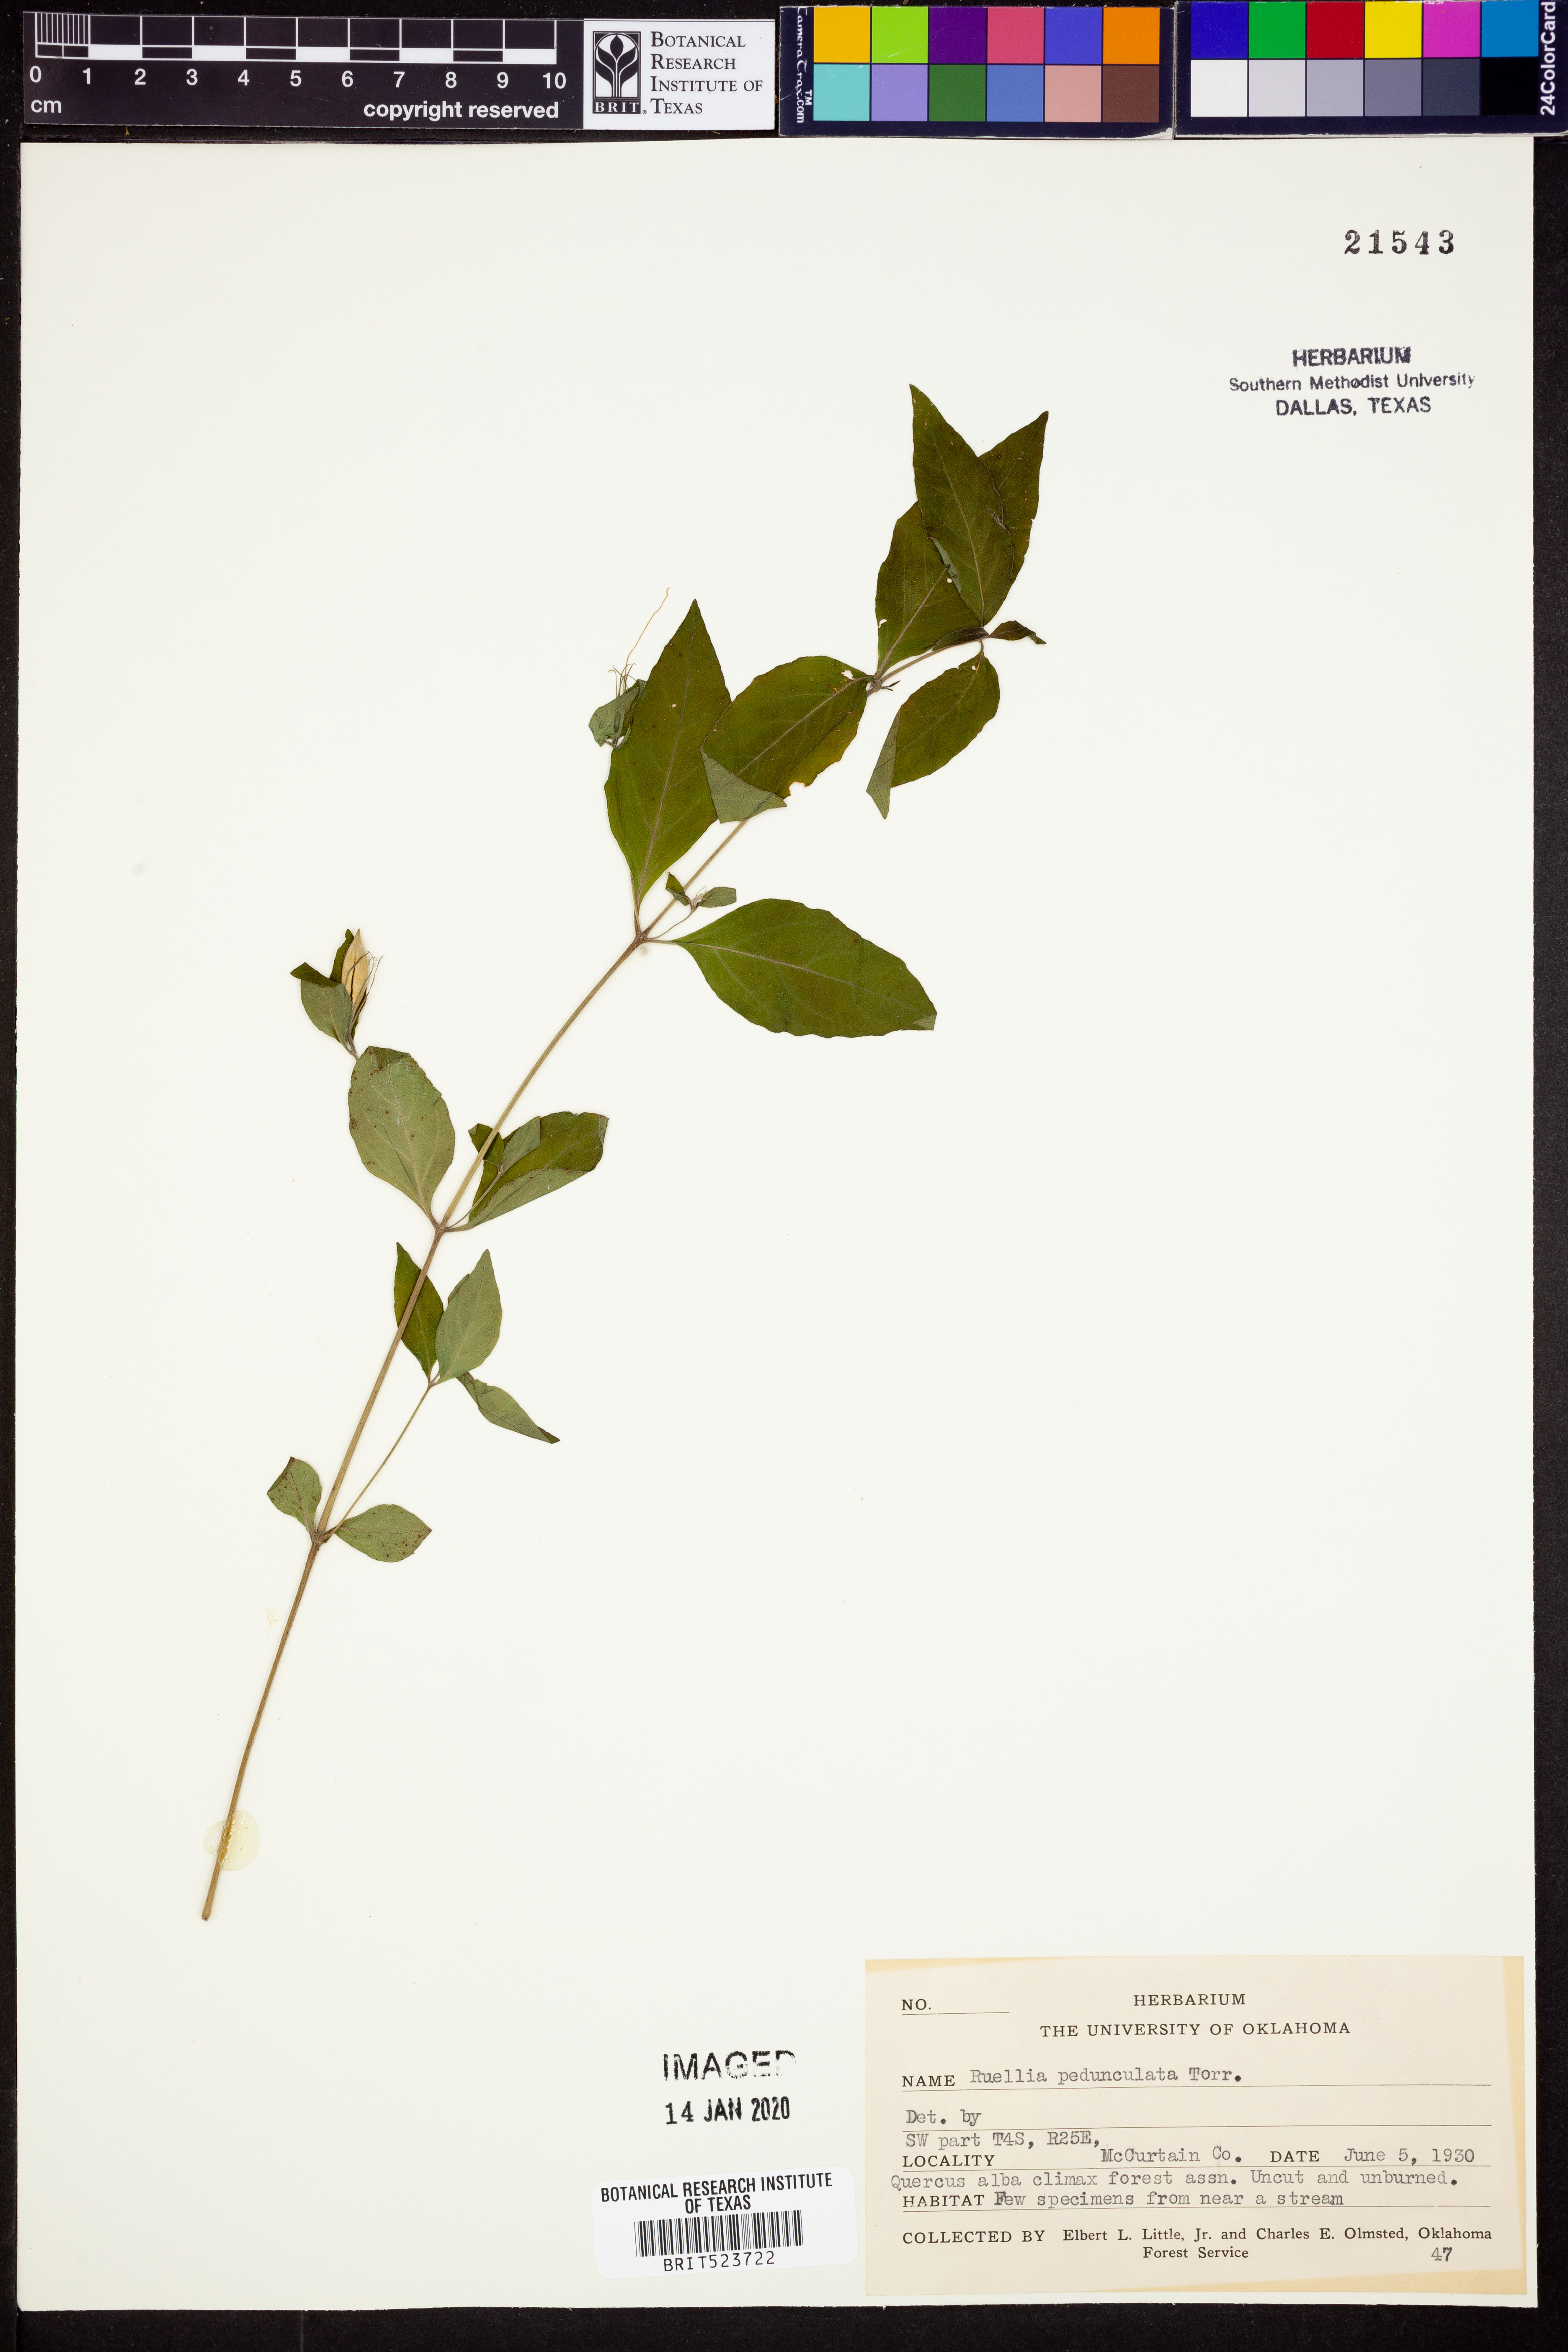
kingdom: Plantae
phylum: Tracheophyta
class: Magnoliopsida
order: Lamiales
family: Acanthaceae
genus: Ruellia
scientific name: Ruellia pedunculata
